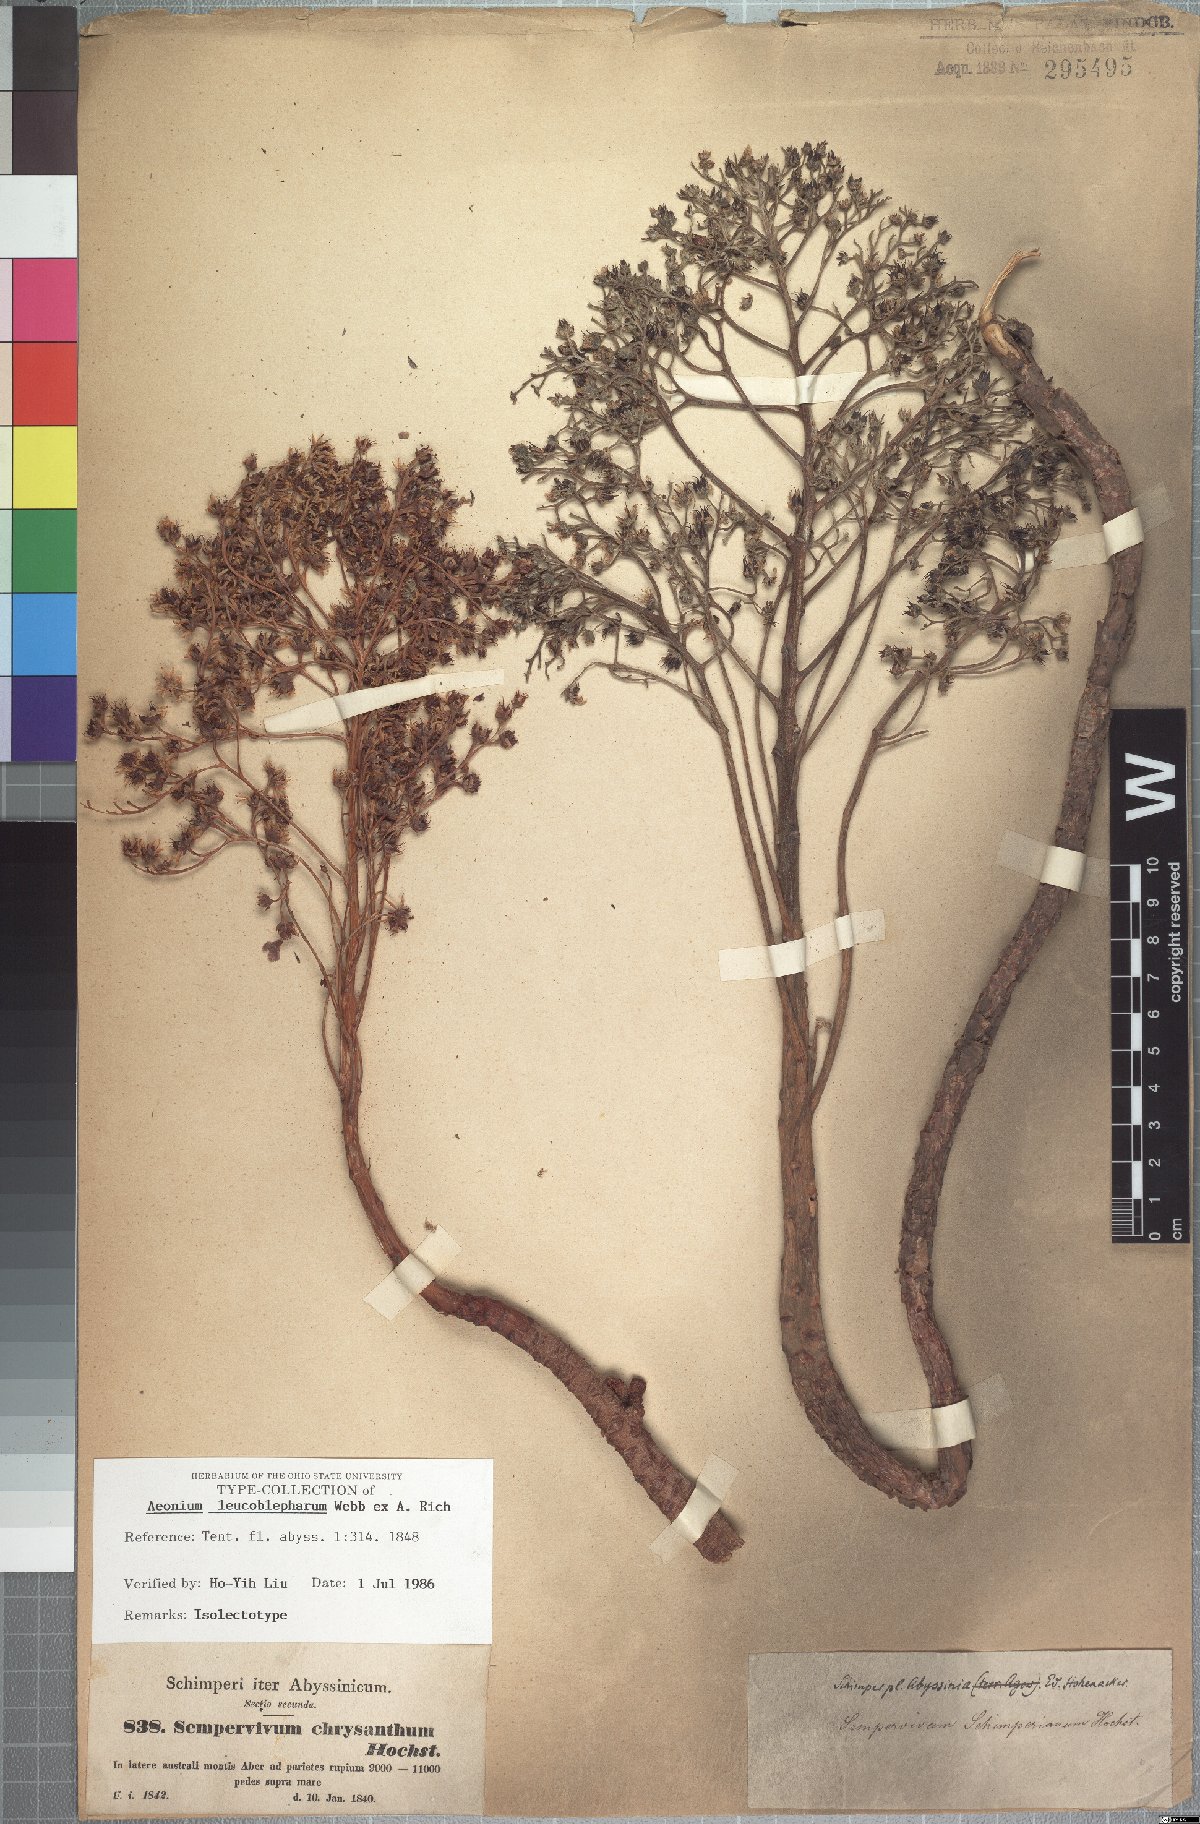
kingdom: Plantae
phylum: Tracheophyta
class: Magnoliopsida
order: Saxifragales
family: Crassulaceae
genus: Aeonium
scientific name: Aeonium leucoblepharum
